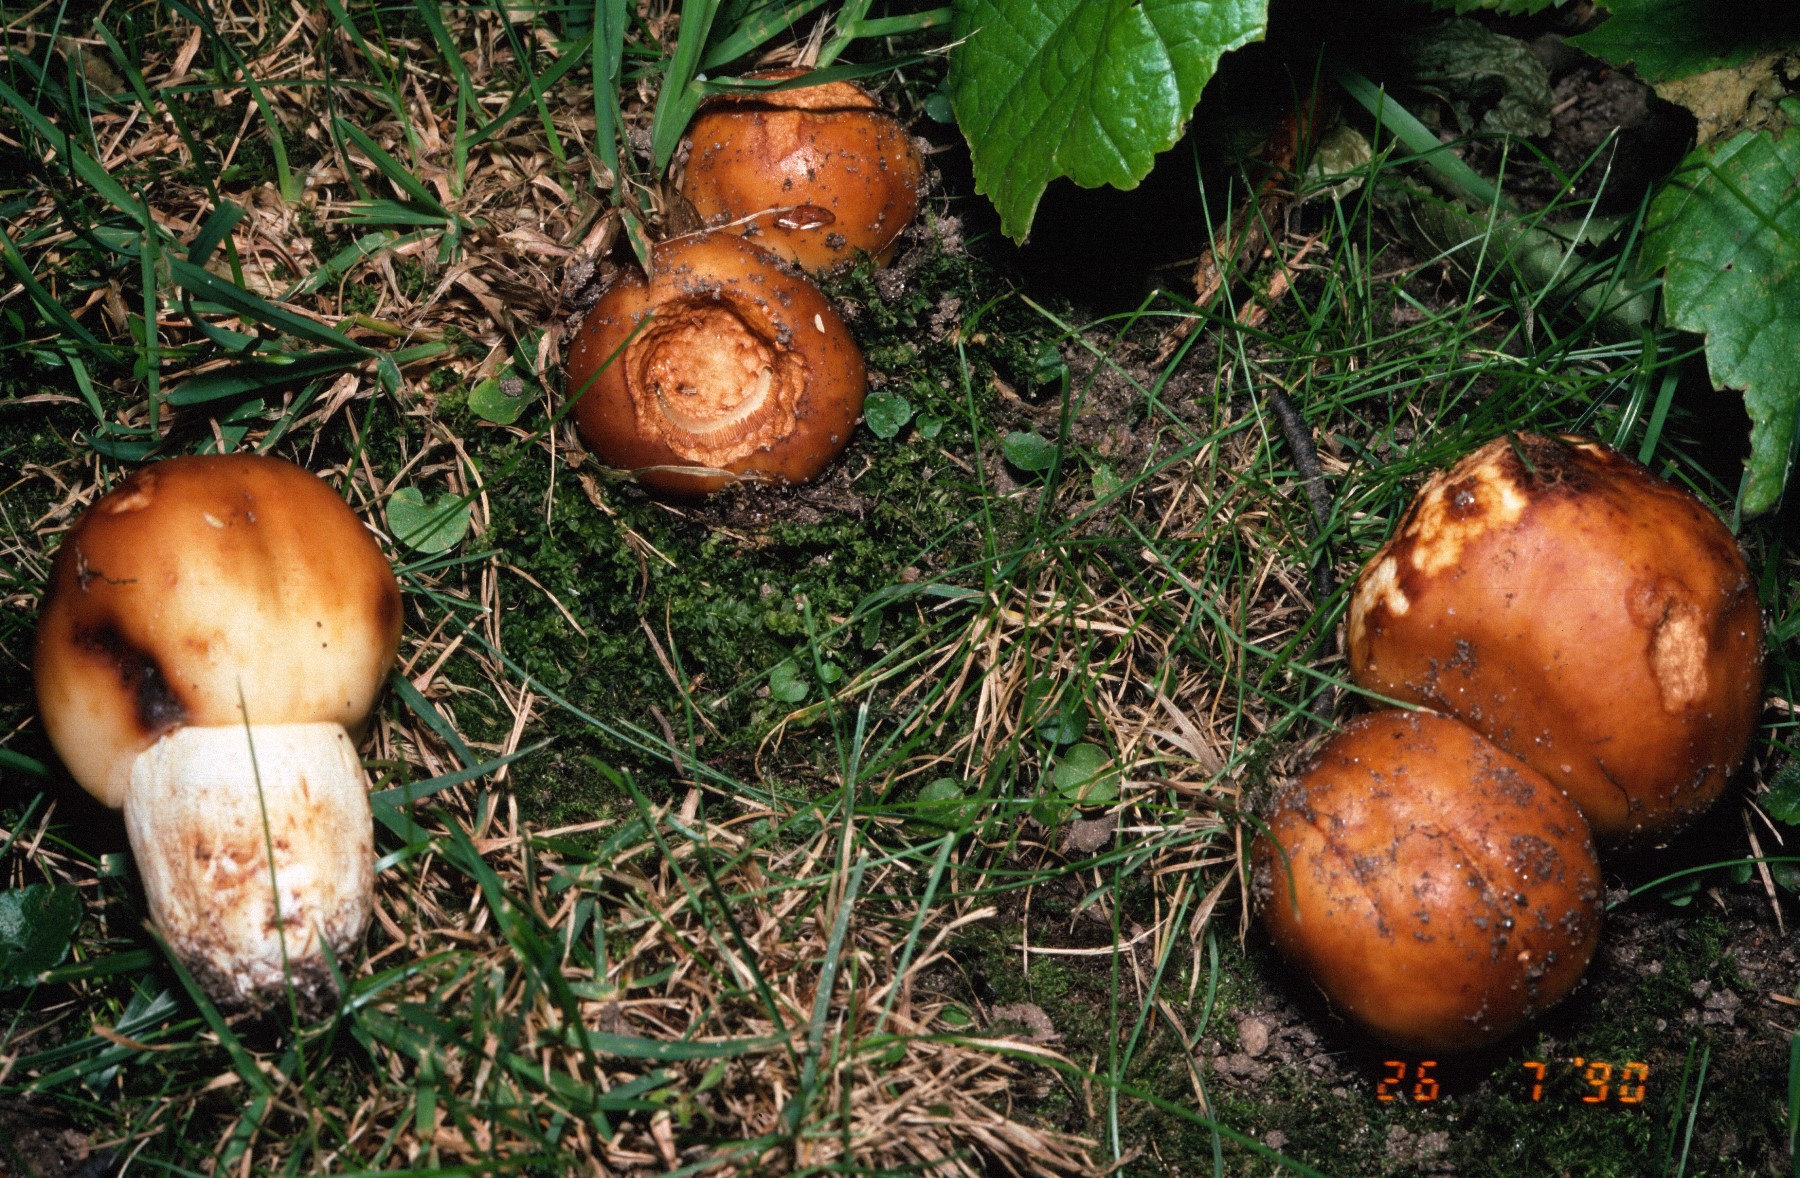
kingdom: Fungi
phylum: Basidiomycota
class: Agaricomycetes
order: Russulales
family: Russulaceae
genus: Russula
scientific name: Russula foetens
